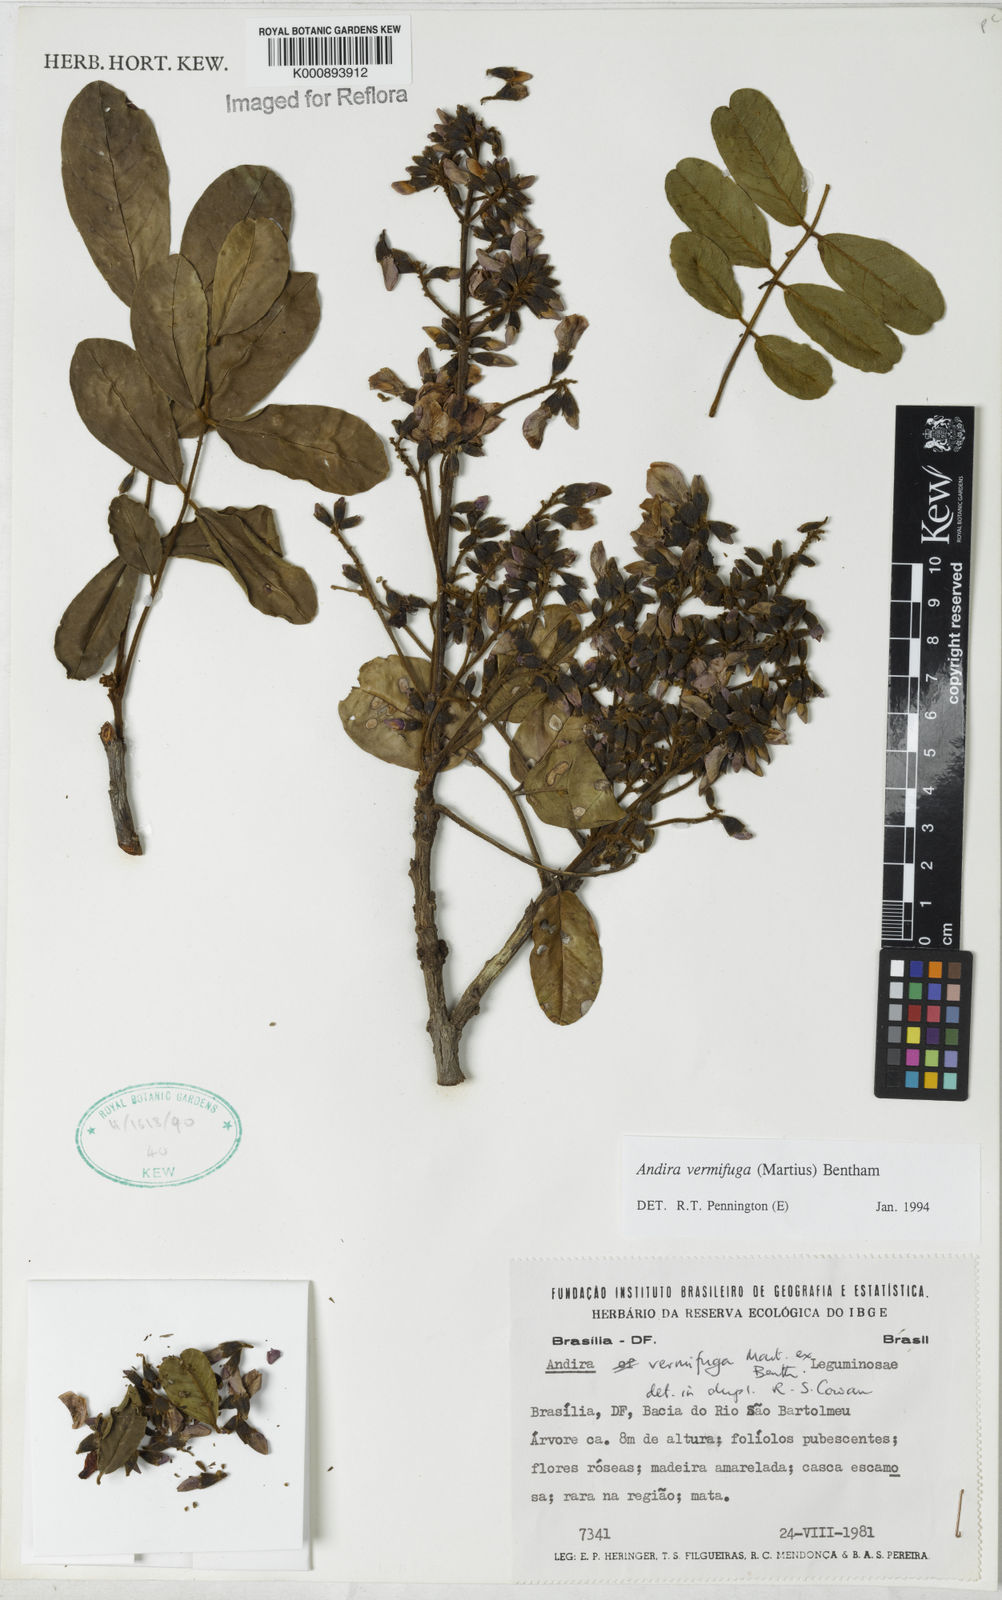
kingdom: Plantae
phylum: Tracheophyta
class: Magnoliopsida
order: Fabales
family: Fabaceae
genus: Andira
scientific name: Andira vermifuga
